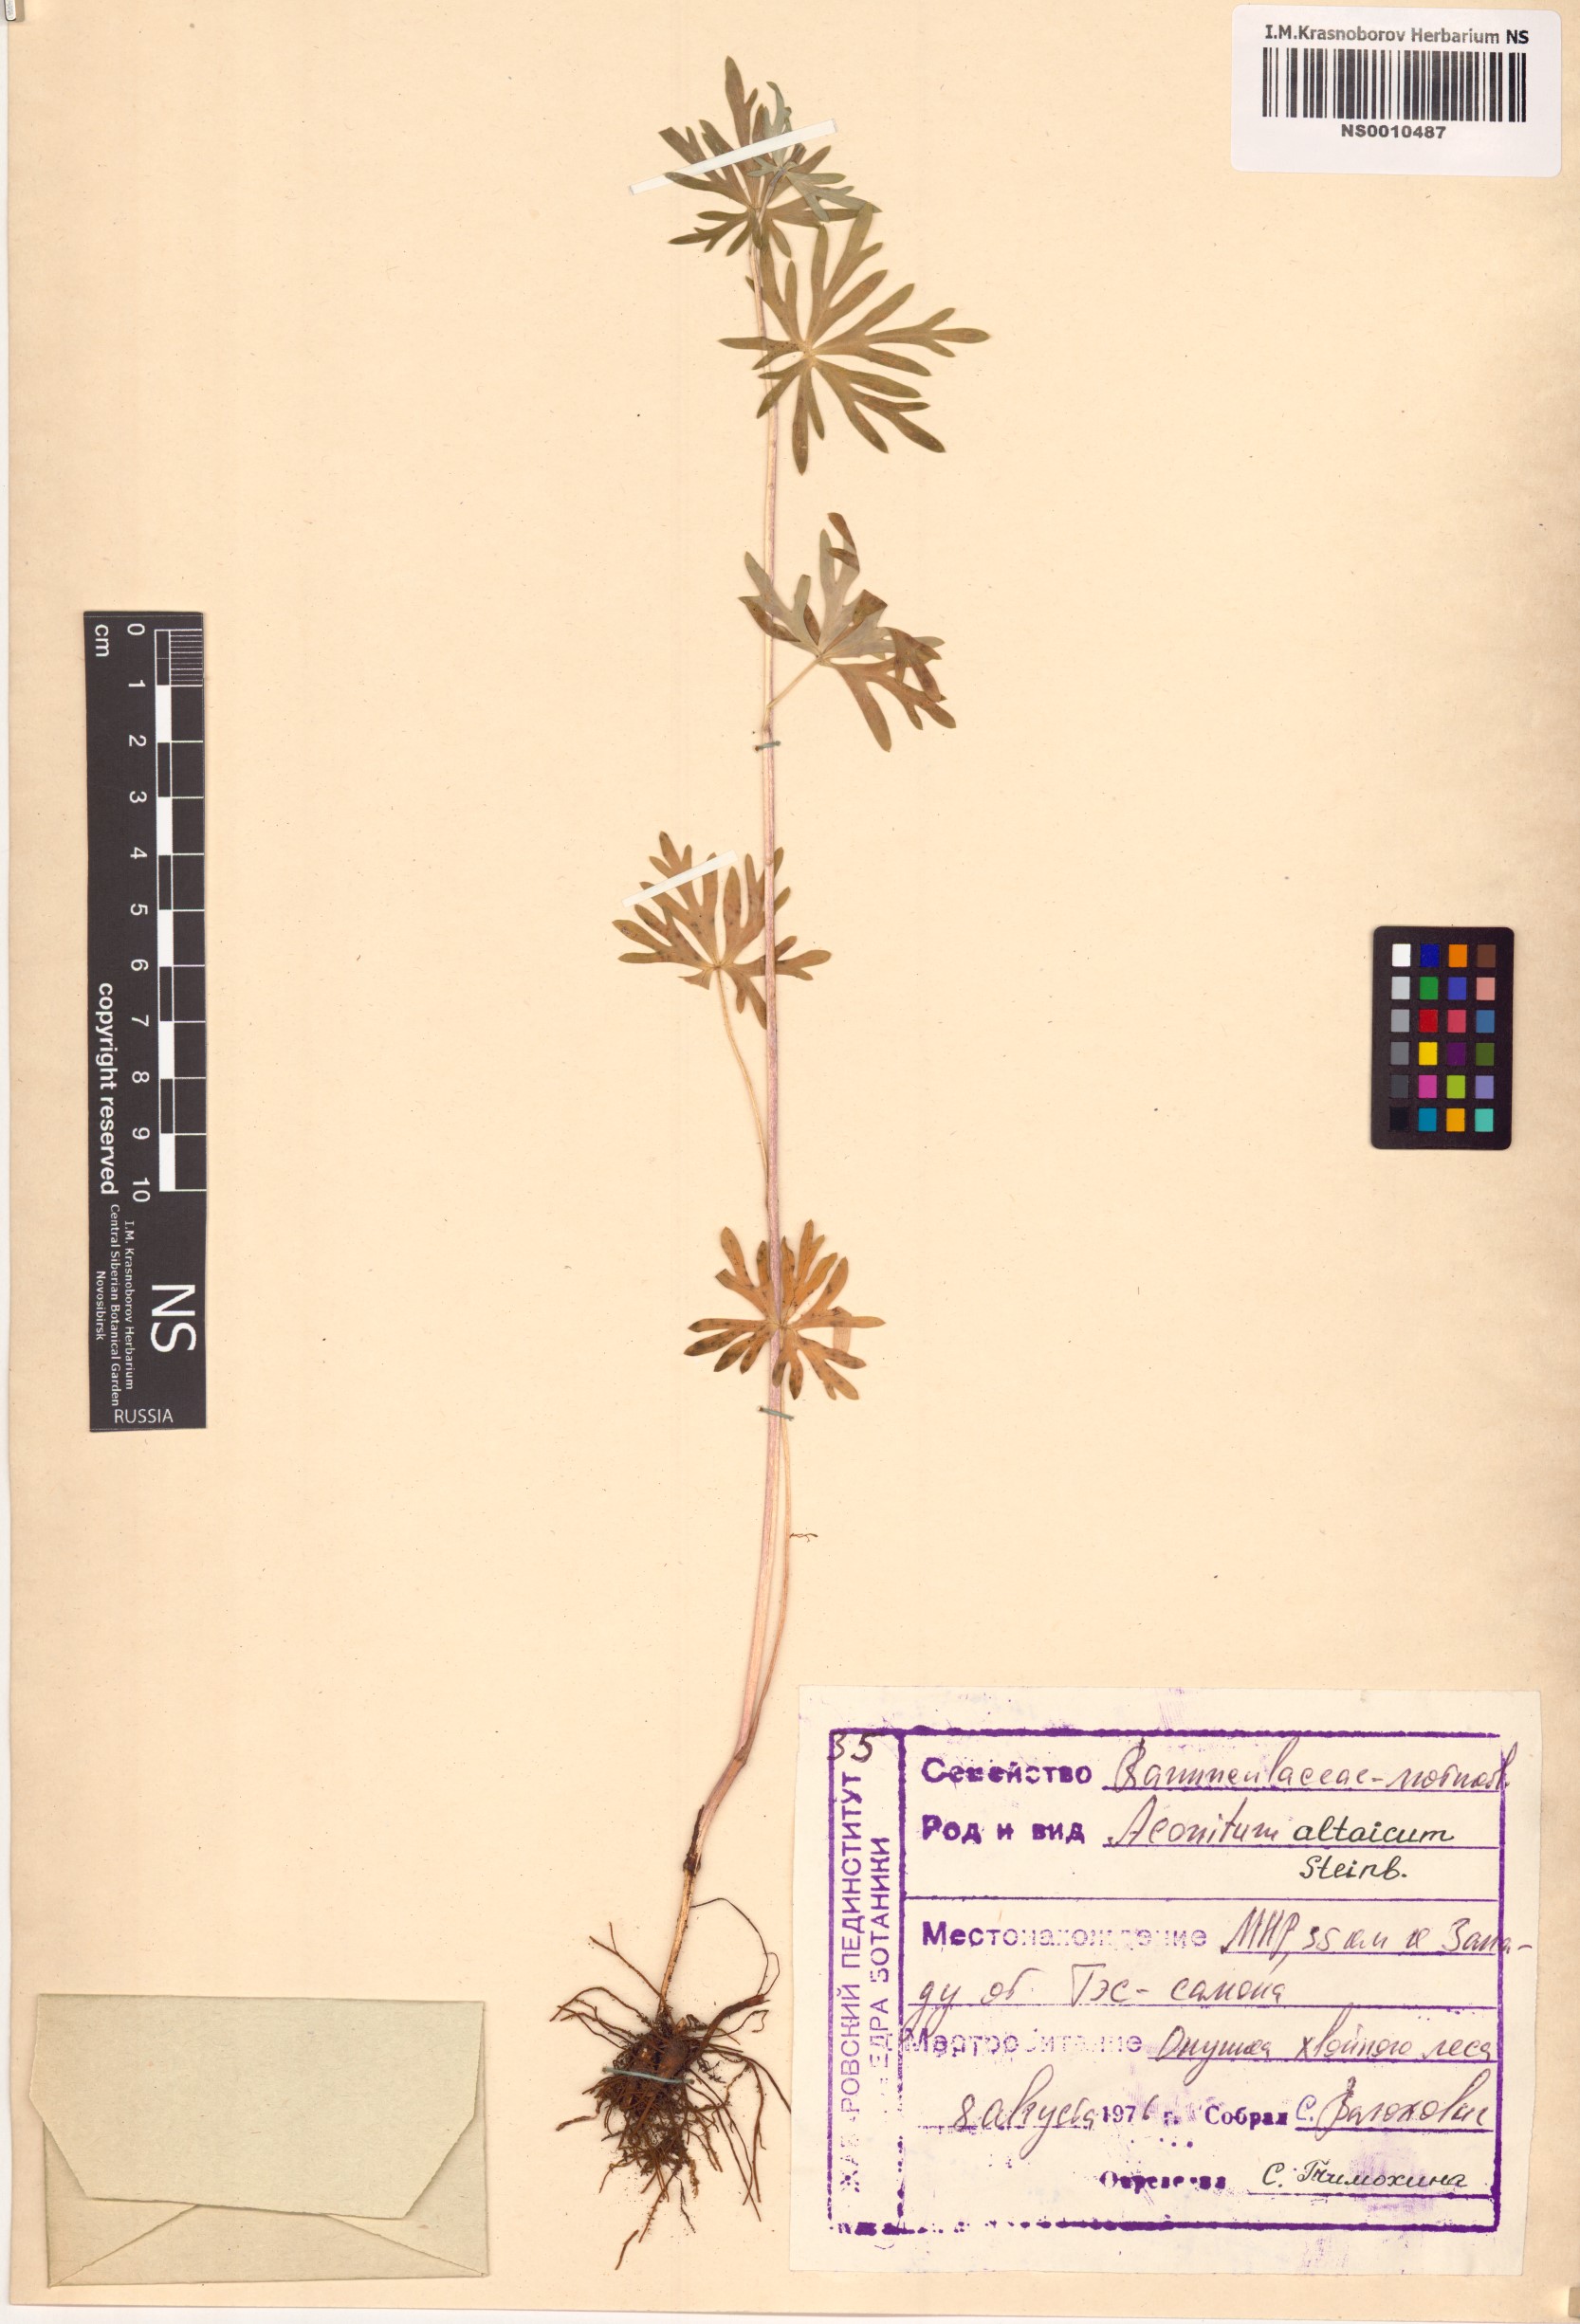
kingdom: Plantae
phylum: Tracheophyta
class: Magnoliopsida
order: Ranunculales
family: Ranunculaceae
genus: Aconitum
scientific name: Aconitum glandulosum
